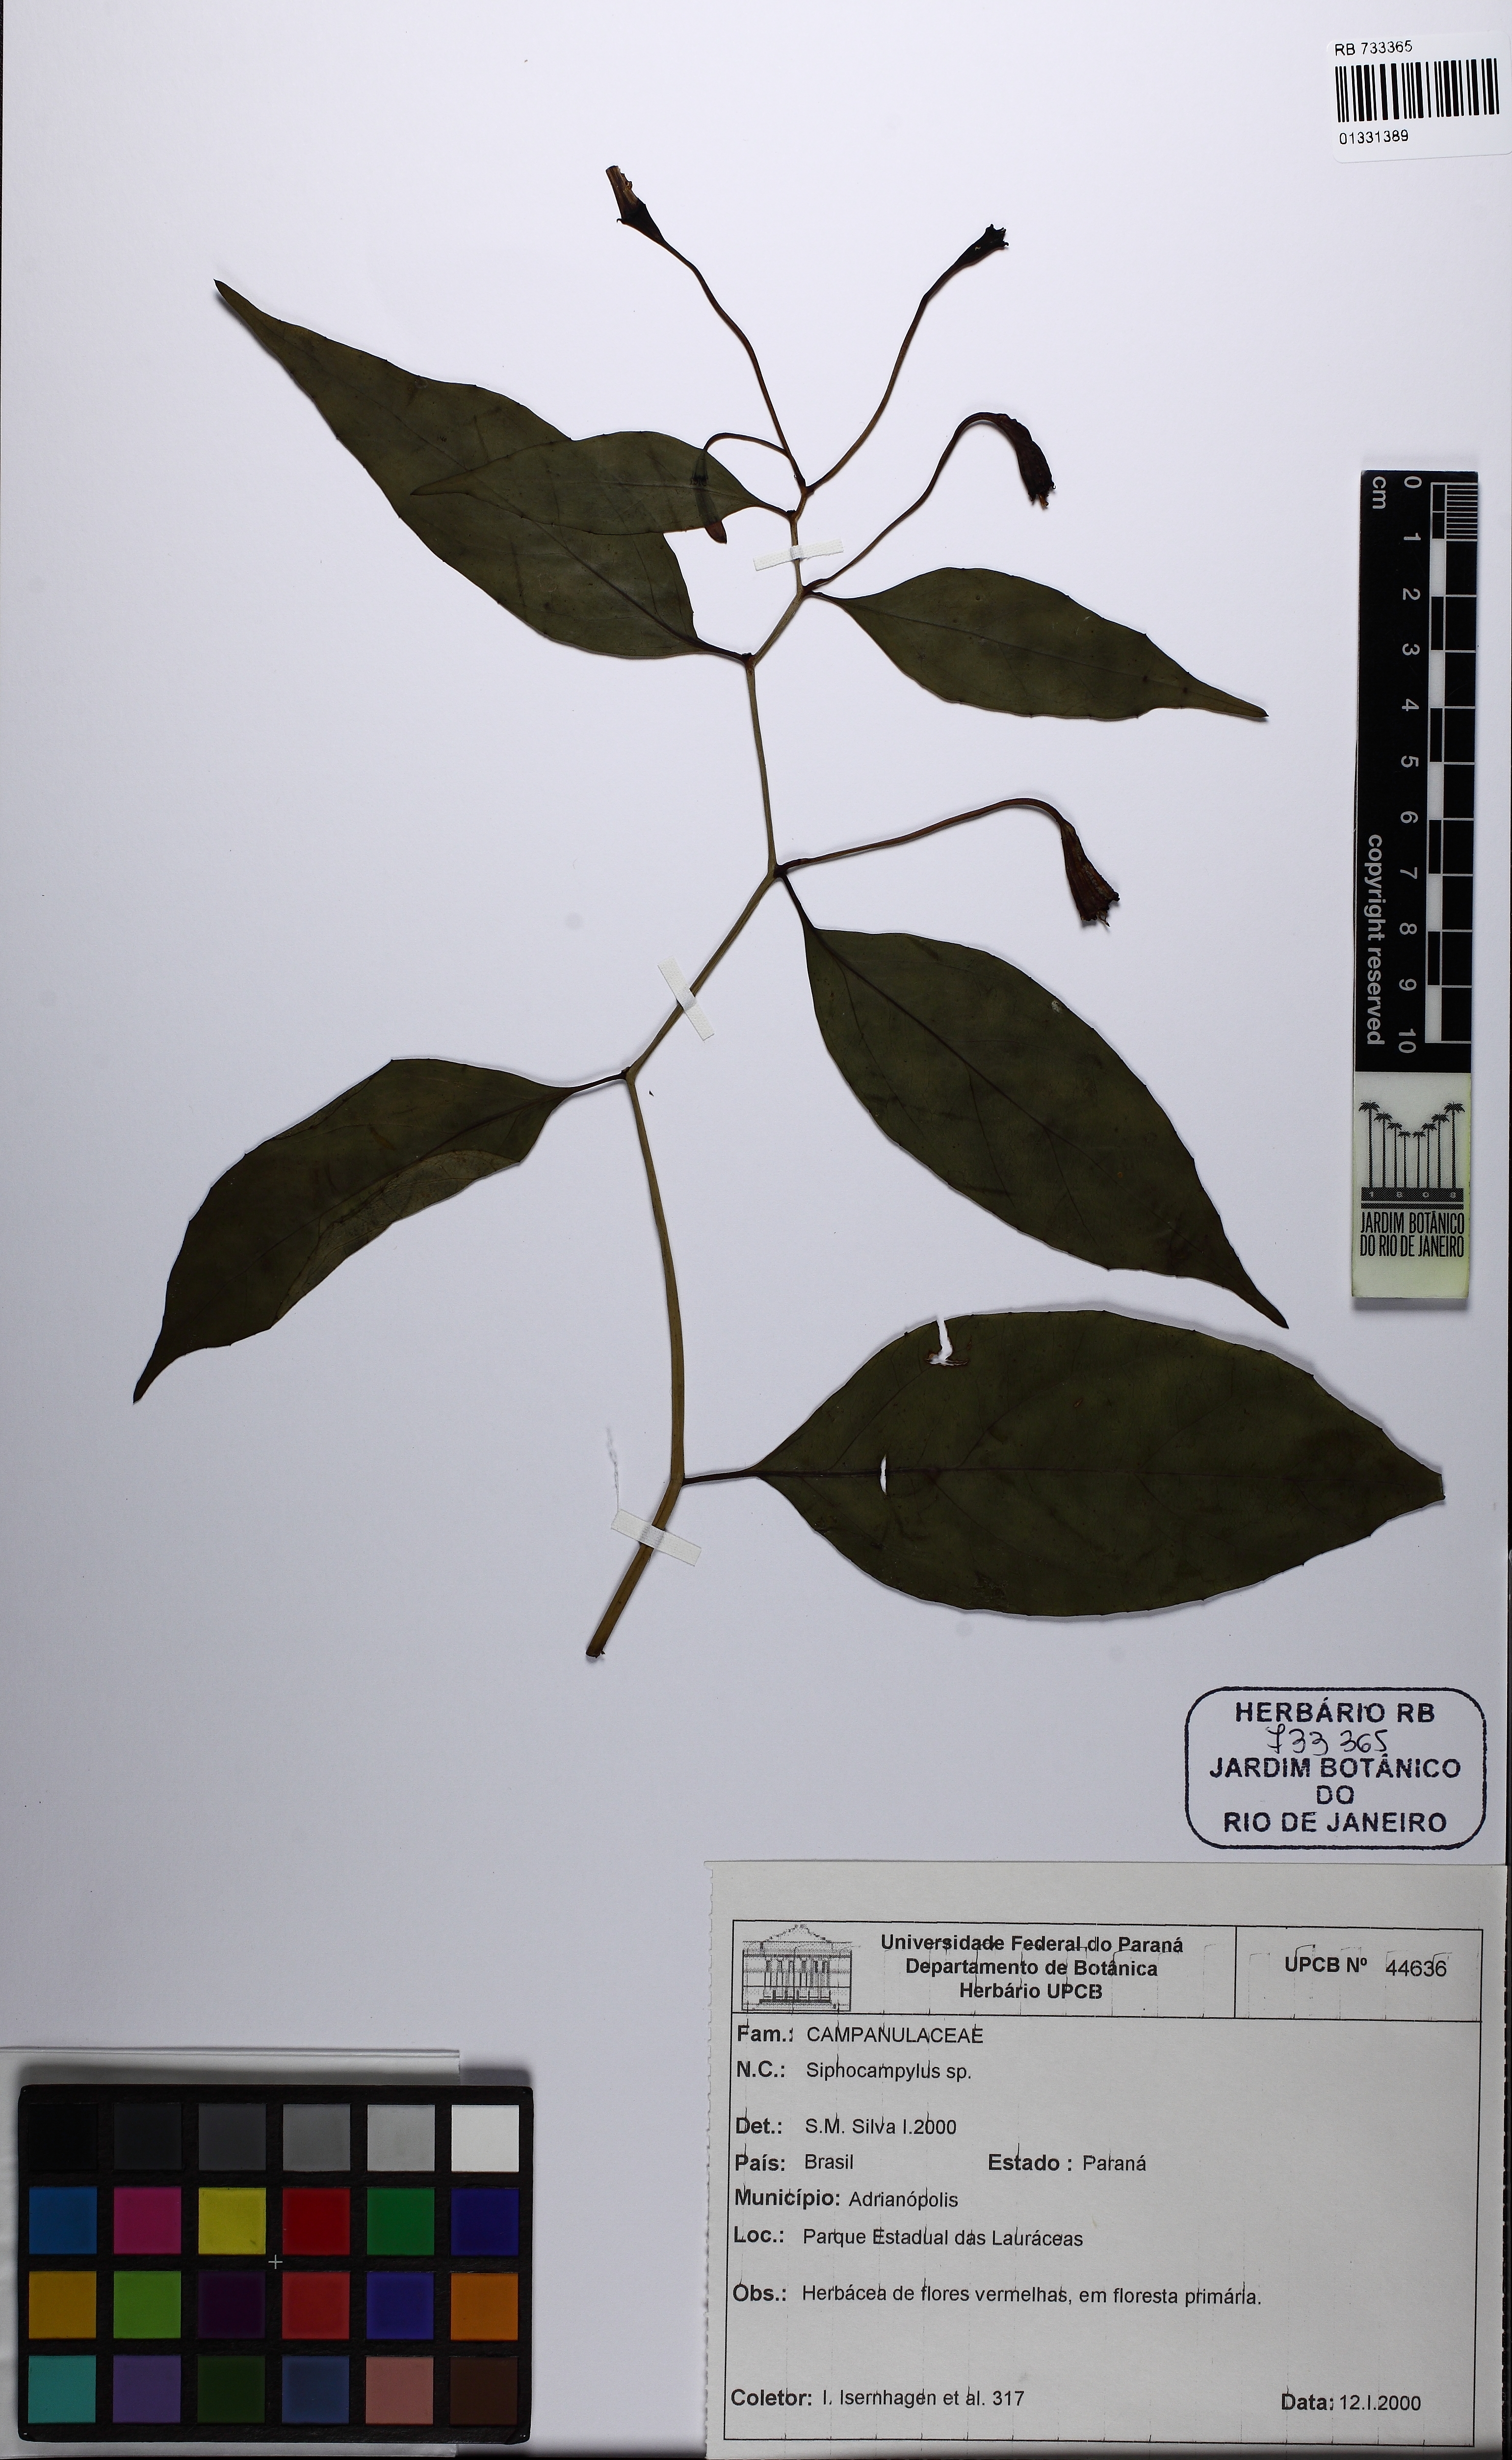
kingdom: Plantae
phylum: Tracheophyta
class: Magnoliopsida
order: Asterales
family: Campanulaceae
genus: Siphocampylus
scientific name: Siphocampylus fulgens
